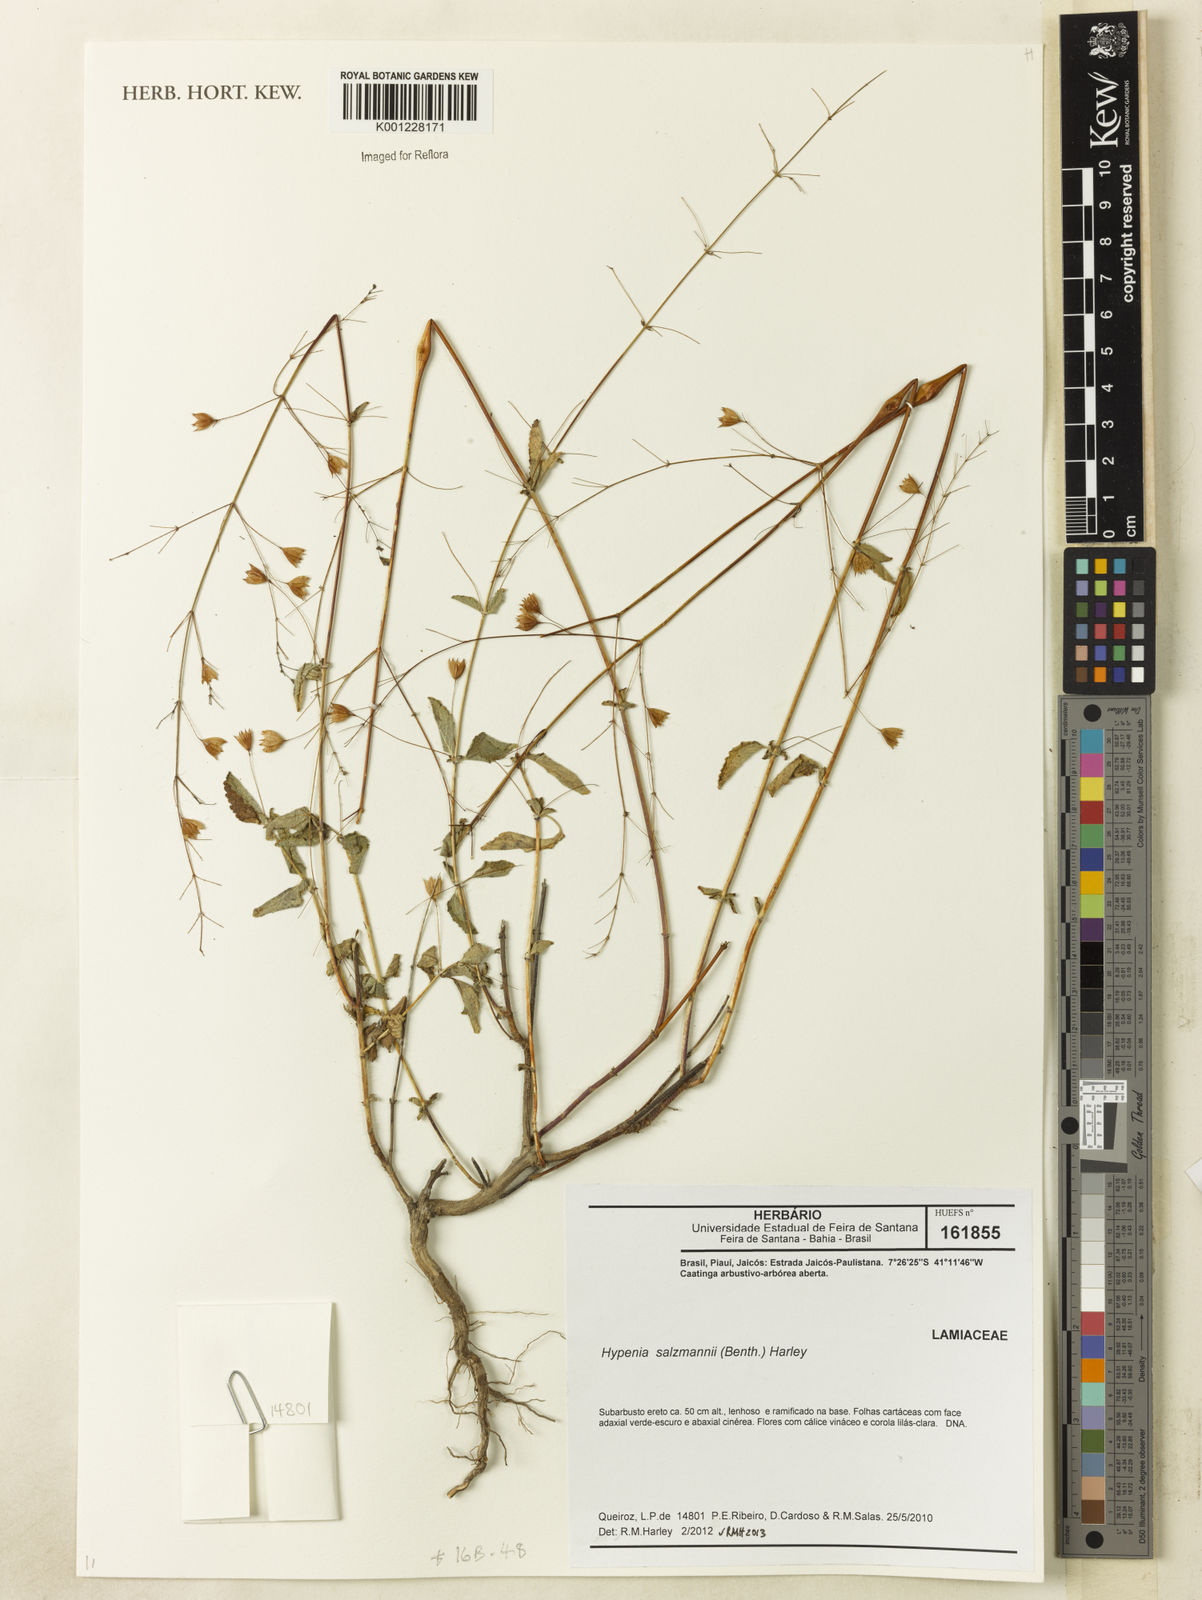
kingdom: Plantae
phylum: Tracheophyta
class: Magnoliopsida
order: Lamiales
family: Lamiaceae
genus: Hypenia
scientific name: Hypenia salzmannii
